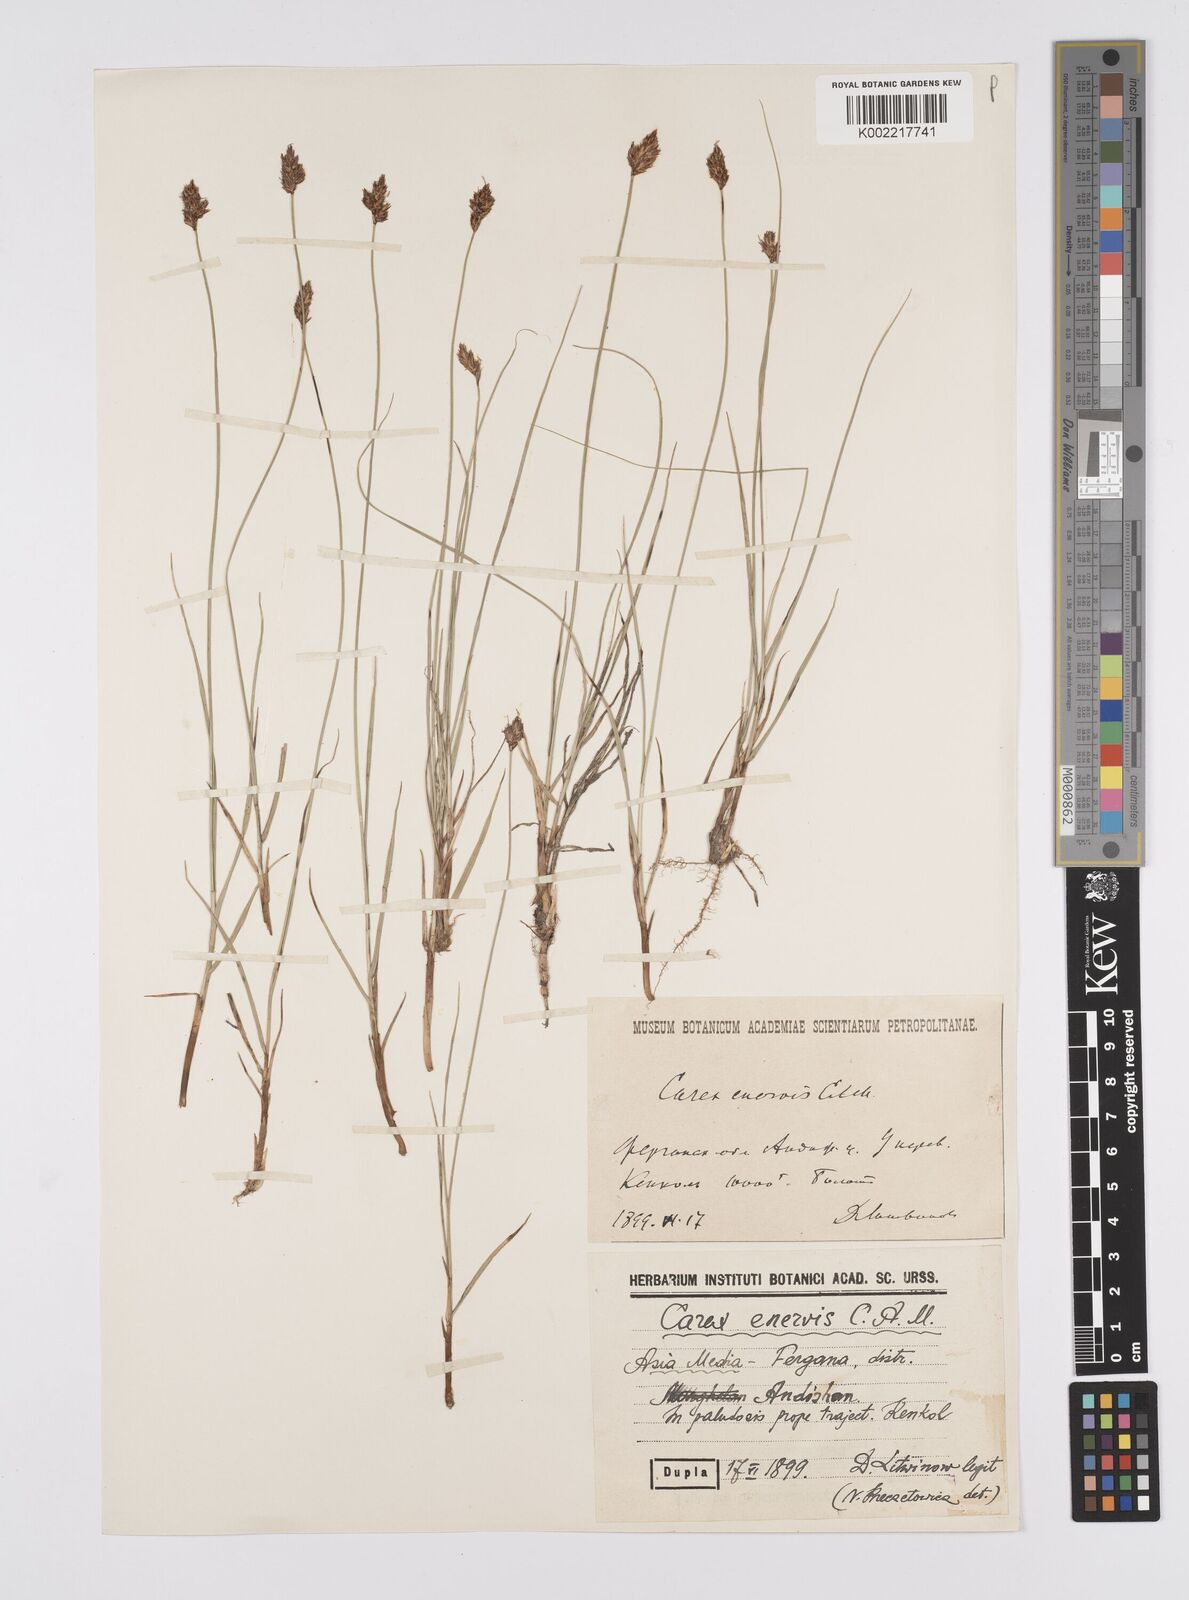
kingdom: Plantae
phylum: Tracheophyta
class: Liliopsida
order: Poales
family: Cyperaceae
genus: Carex
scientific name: Carex stenophylla
